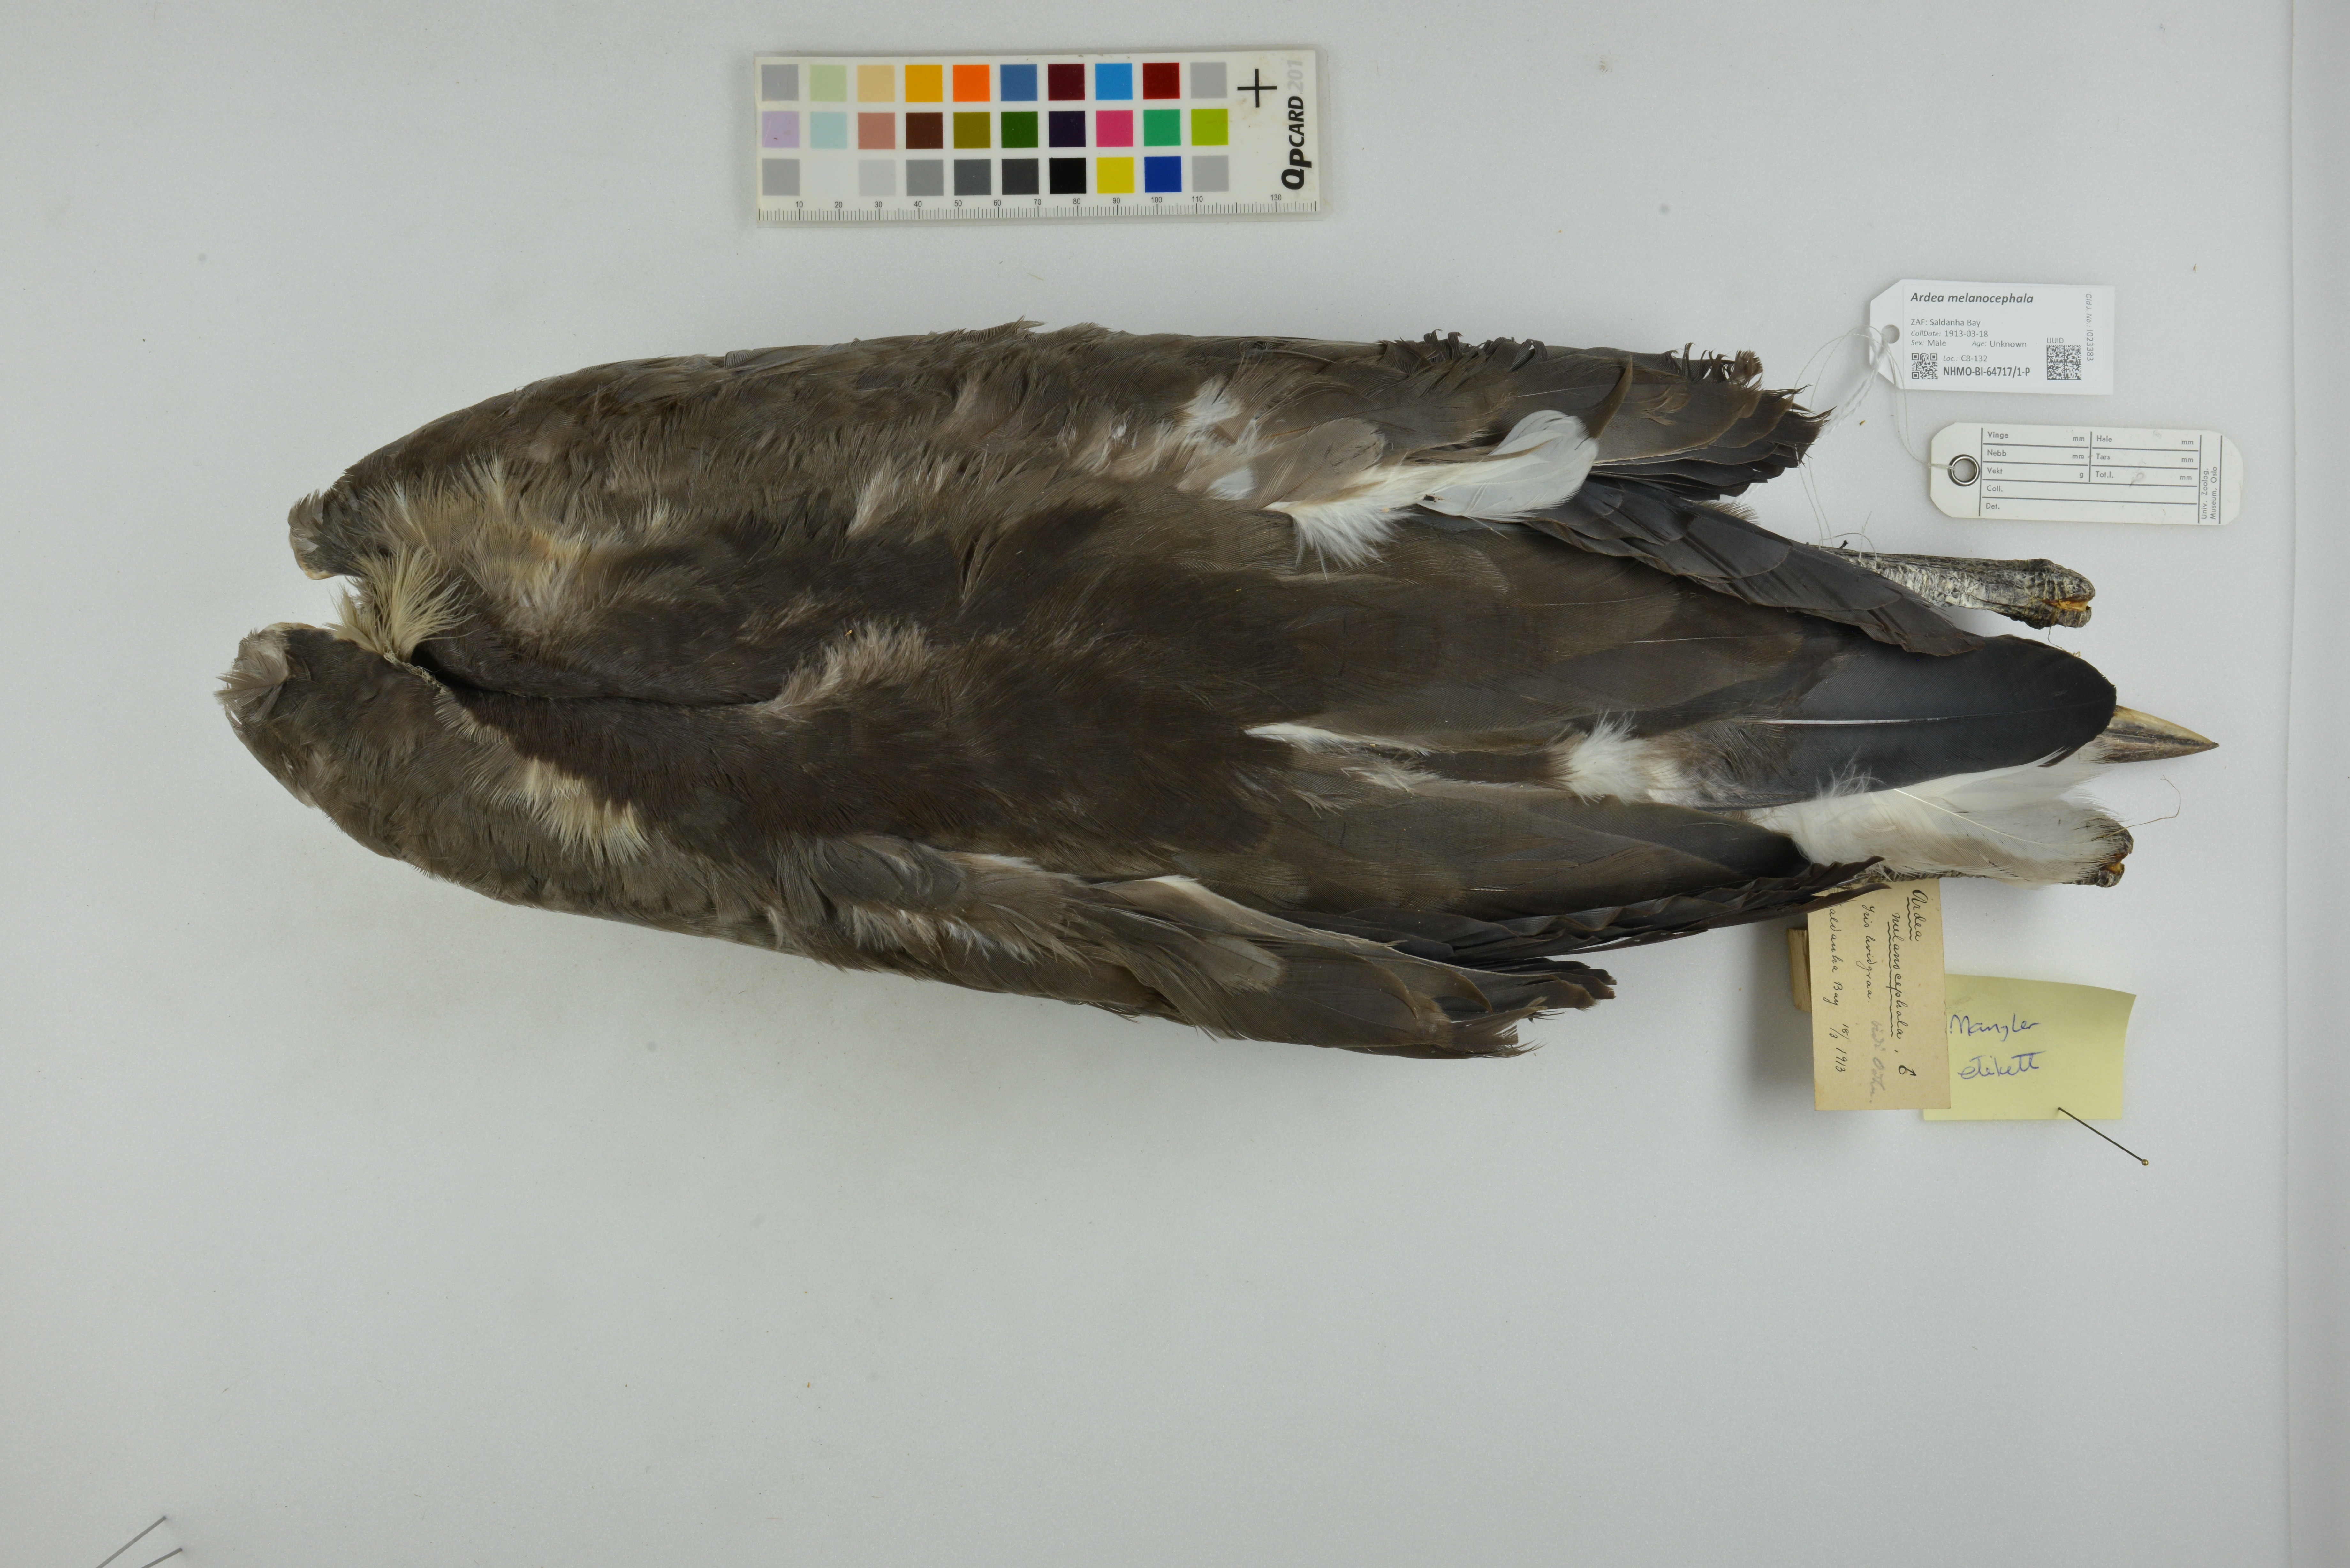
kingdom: Animalia
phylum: Chordata
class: Aves
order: Pelecaniformes
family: Ardeidae
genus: Ardea
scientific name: Ardea melanocephala
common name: Black-headed heron
